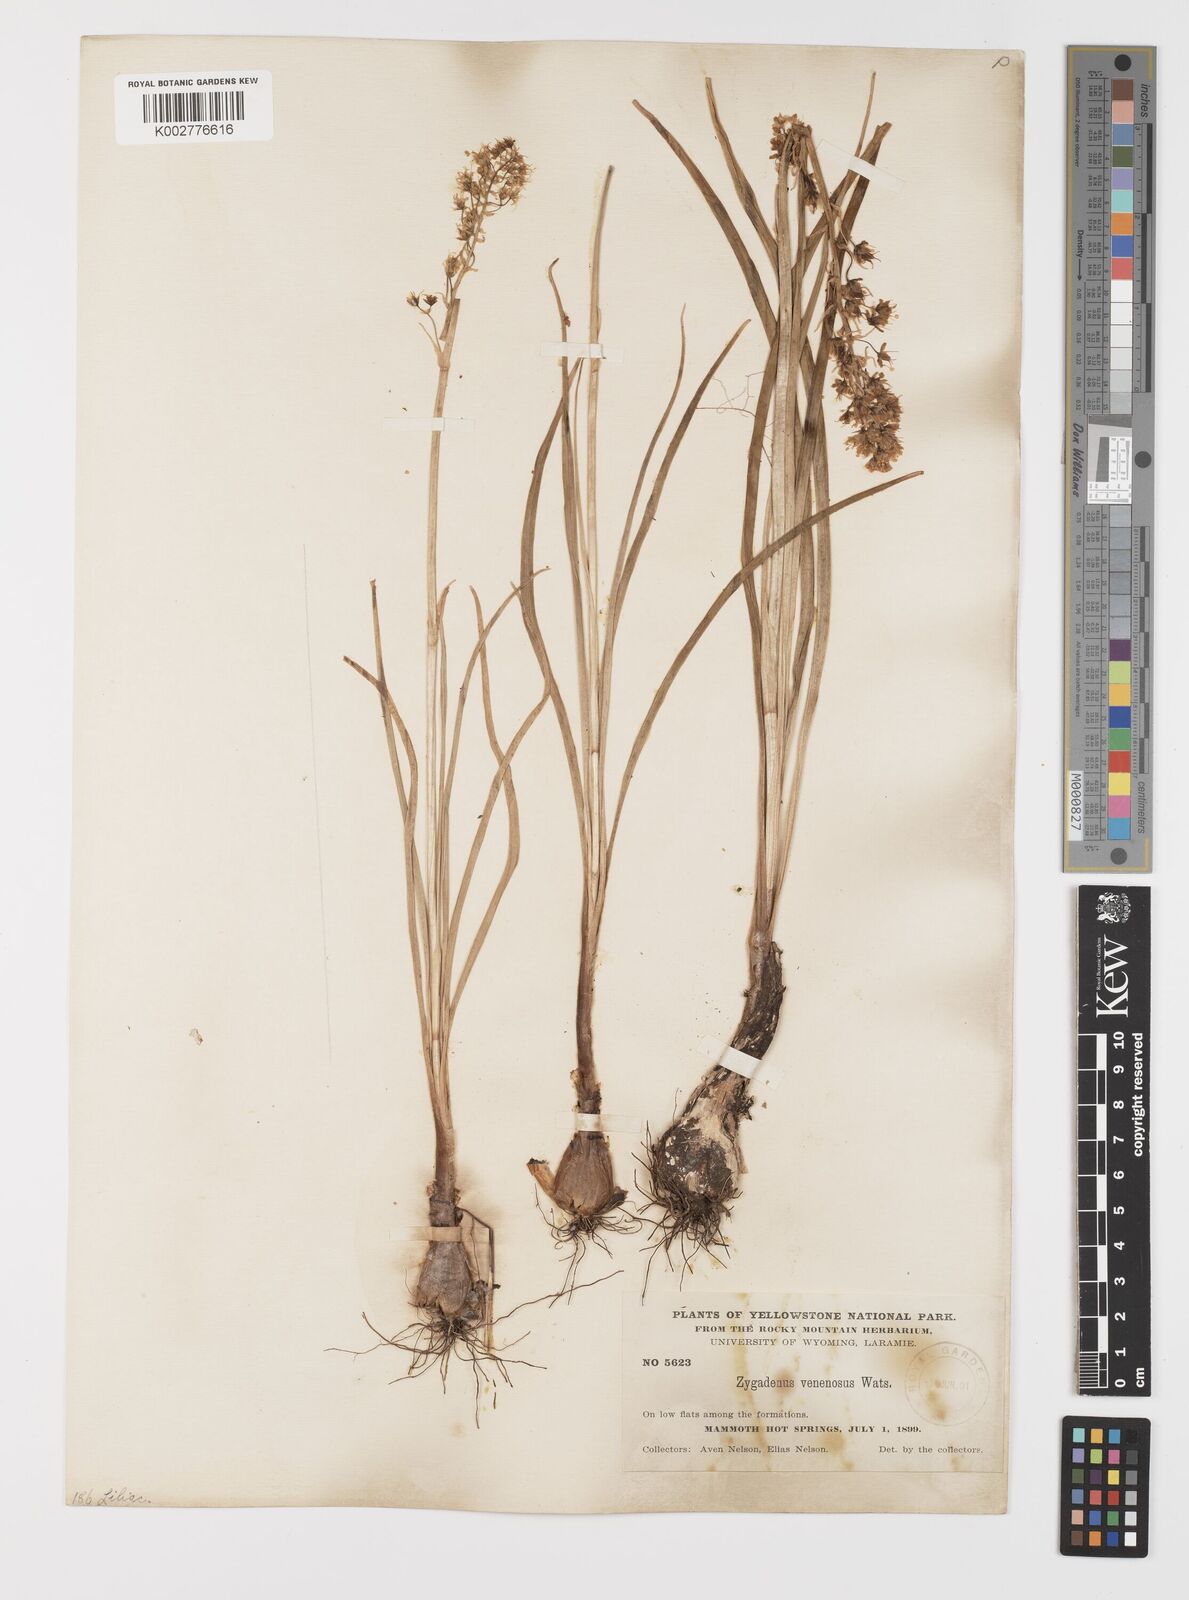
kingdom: Plantae
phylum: Tracheophyta
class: Liliopsida
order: Liliales
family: Melanthiaceae
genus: Toxicoscordion
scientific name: Toxicoscordion venenosum
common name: Meadow death camas
